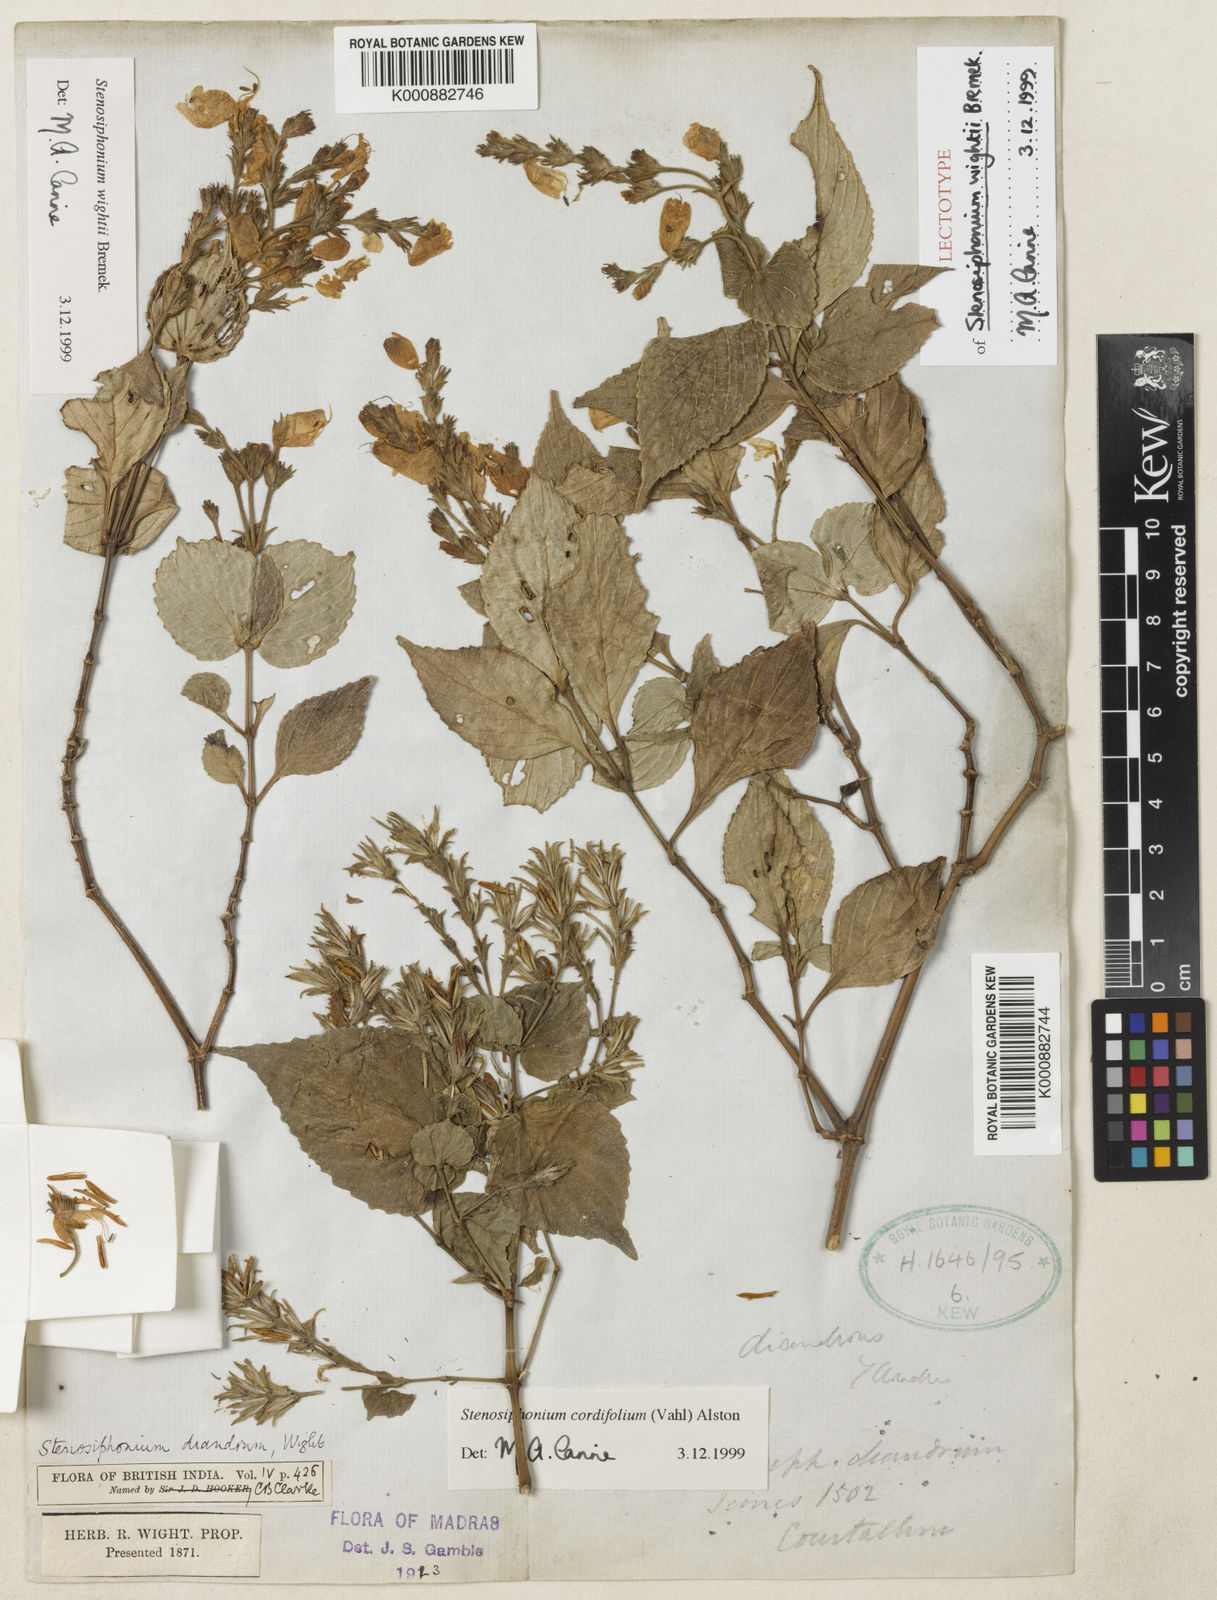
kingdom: Plantae
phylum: Tracheophyta
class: Magnoliopsida
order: Lamiales
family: Acanthaceae
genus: Strobilanthes
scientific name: Strobilanthes cordifolia
